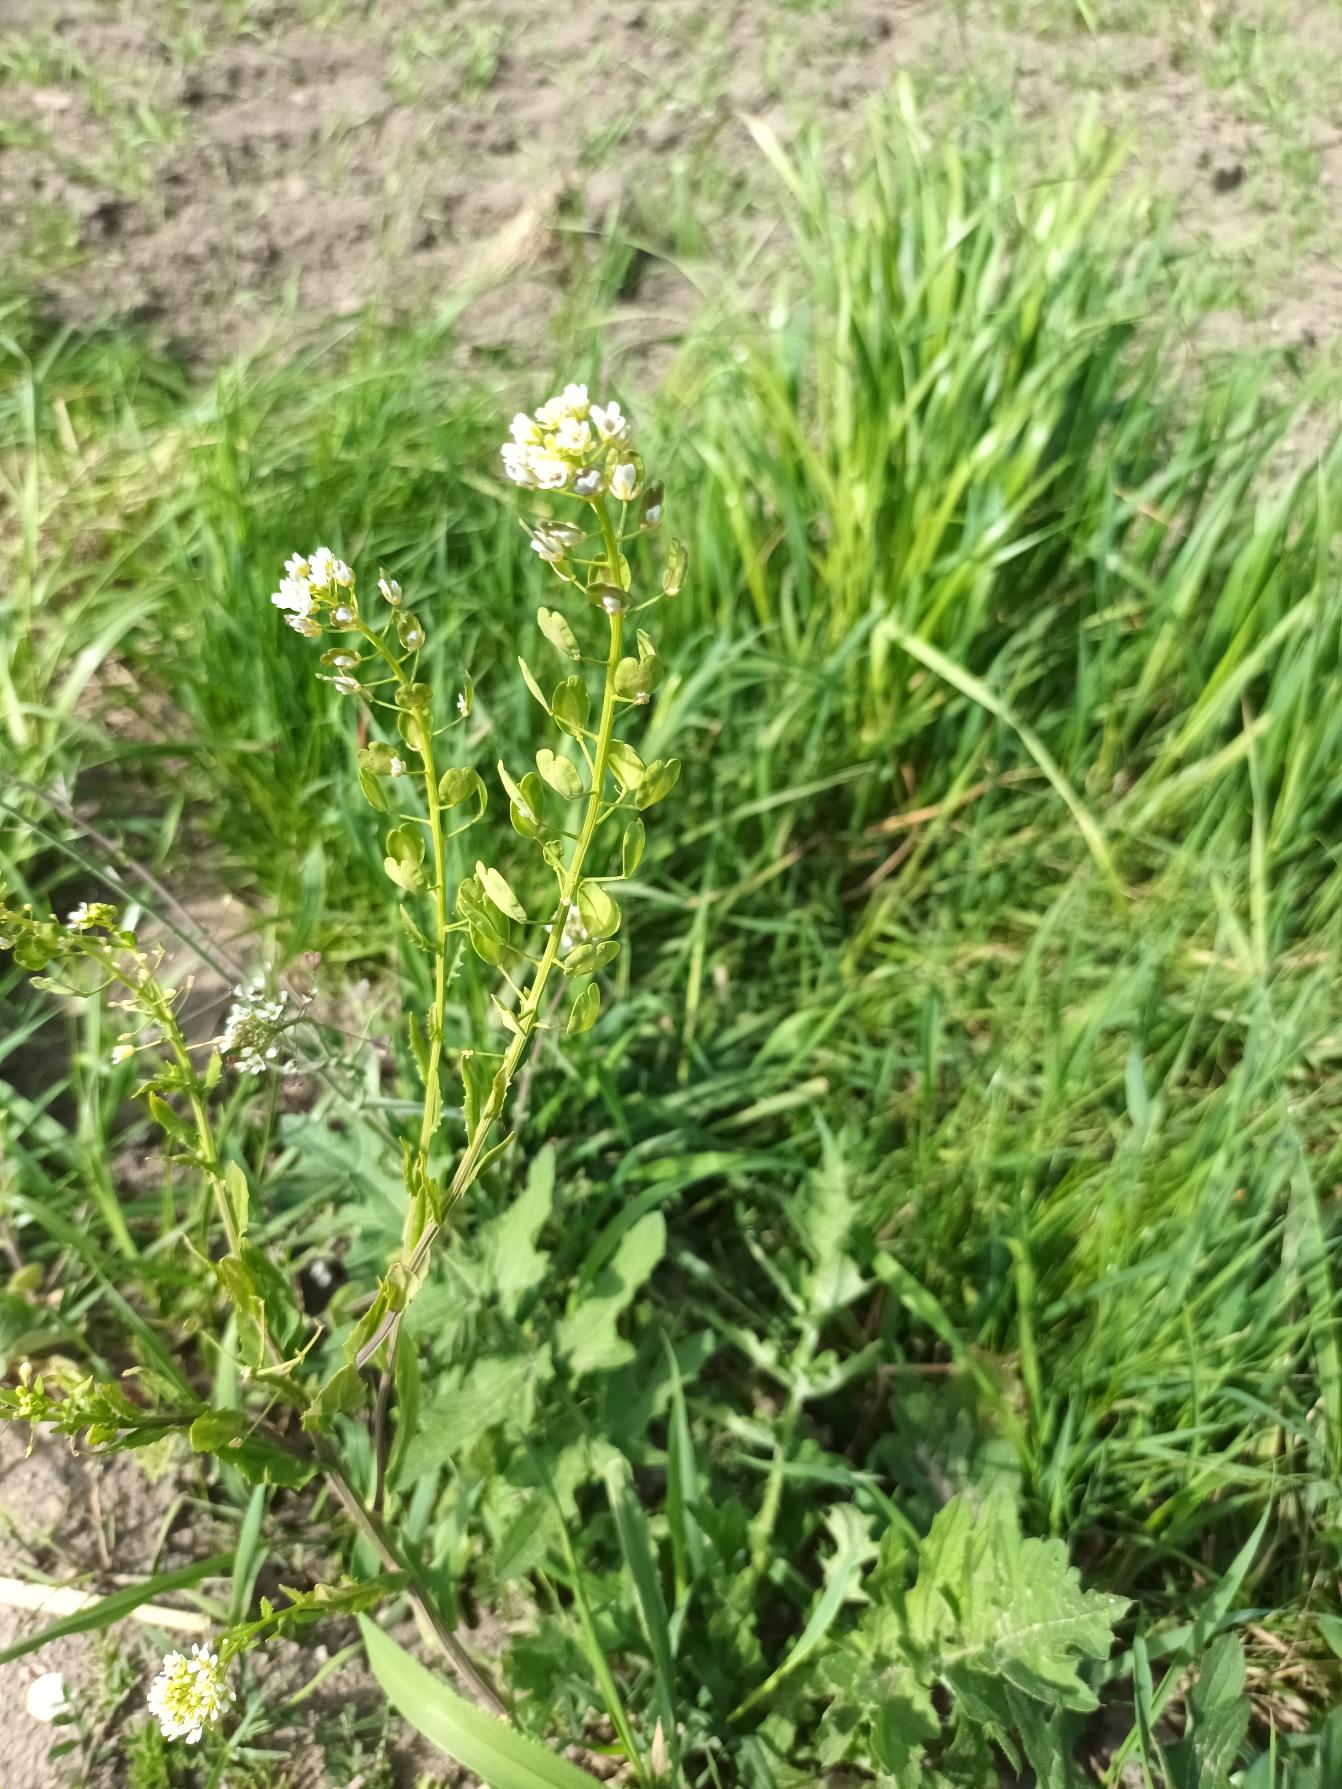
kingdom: Plantae
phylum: Tracheophyta
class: Magnoliopsida
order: Brassicales
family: Brassicaceae
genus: Thlaspi
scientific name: Thlaspi arvense
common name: Almindelig pengeurt
